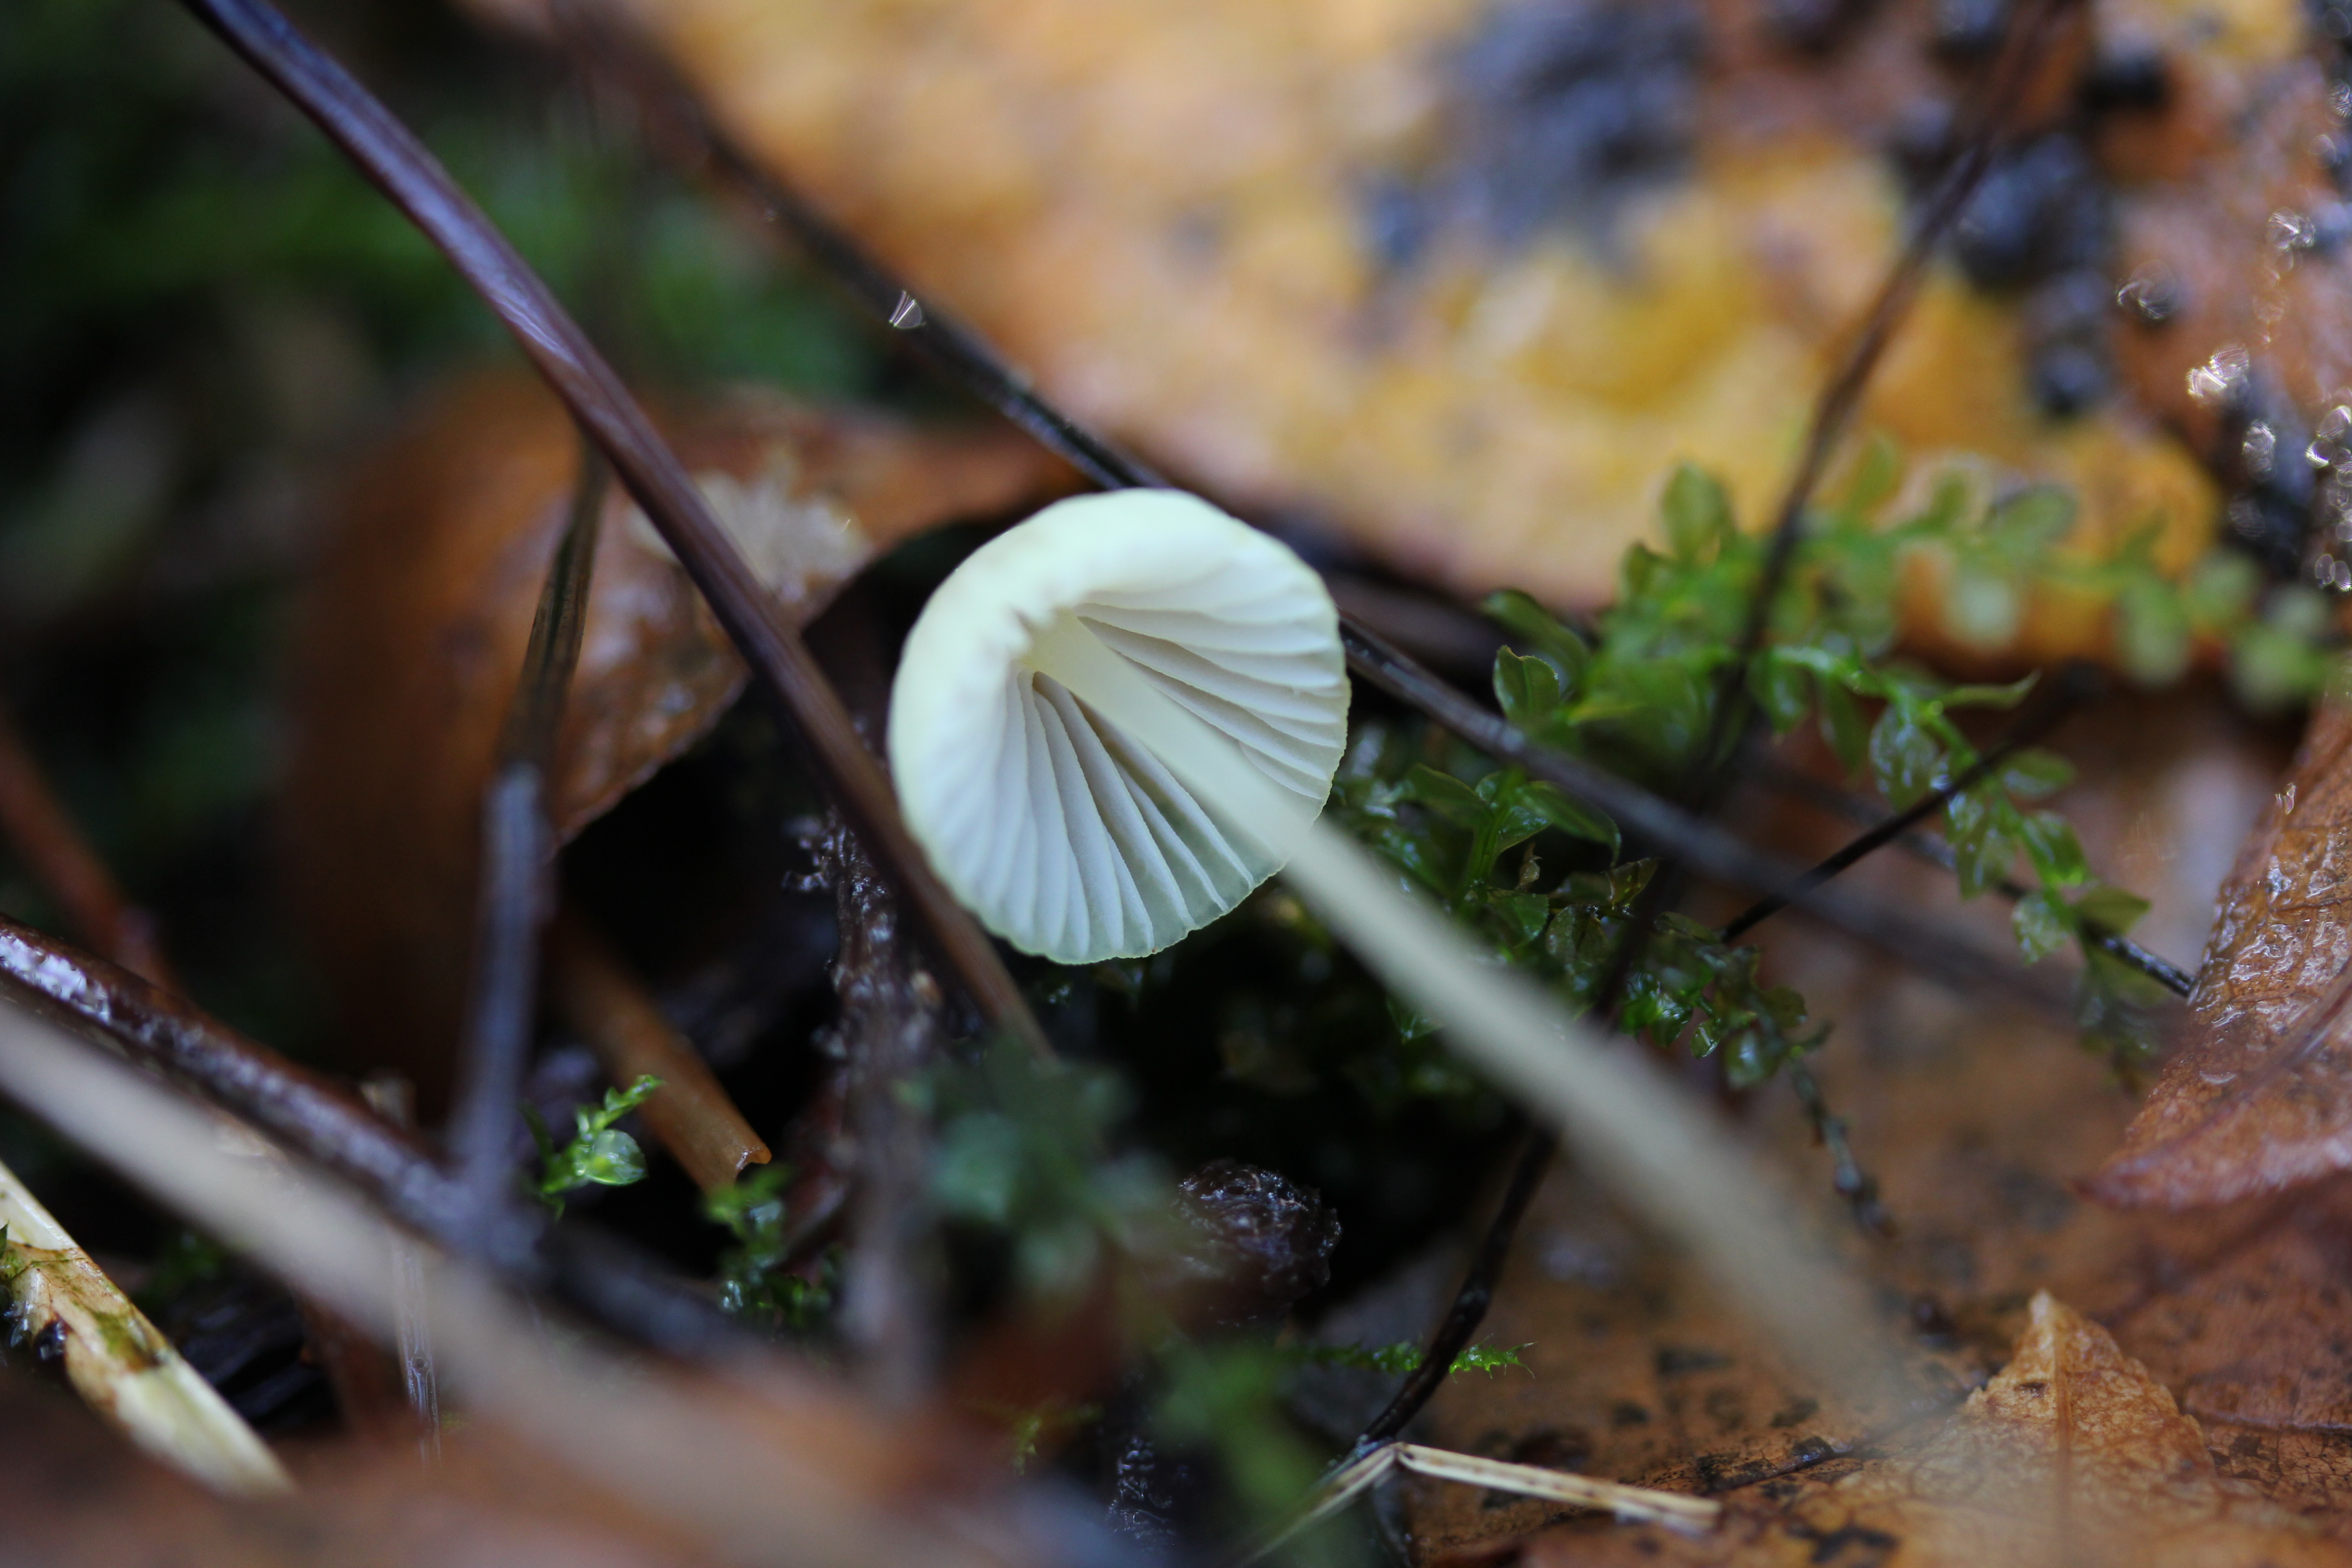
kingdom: Fungi
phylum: Basidiomycota
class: Agaricomycetes
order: Agaricales
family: Mycenaceae
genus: Mycena
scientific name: Mycena citrinomarginata
